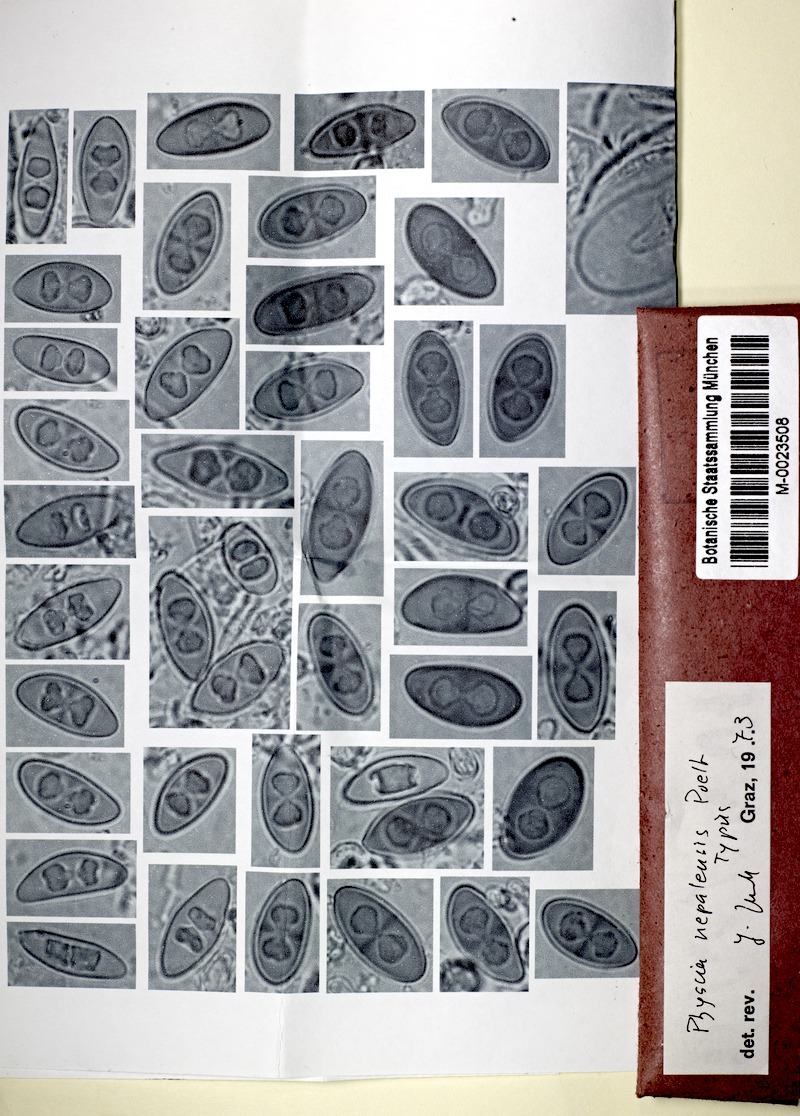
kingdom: Fungi
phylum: Ascomycota
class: Lecanoromycetes
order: Caliciales
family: Physciaceae
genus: Physciella
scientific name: Physciella nepalensis
